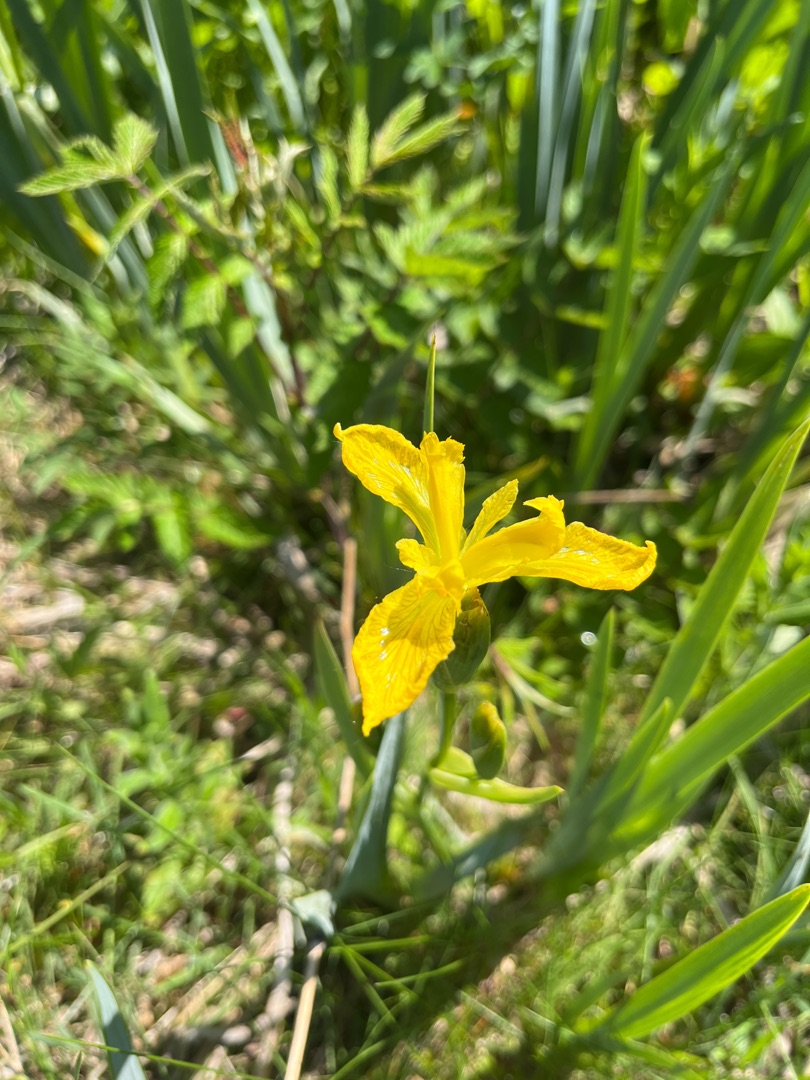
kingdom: Plantae
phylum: Tracheophyta
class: Liliopsida
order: Asparagales
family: Iridaceae
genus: Iris
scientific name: Iris pseudacorus
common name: Gul iris
